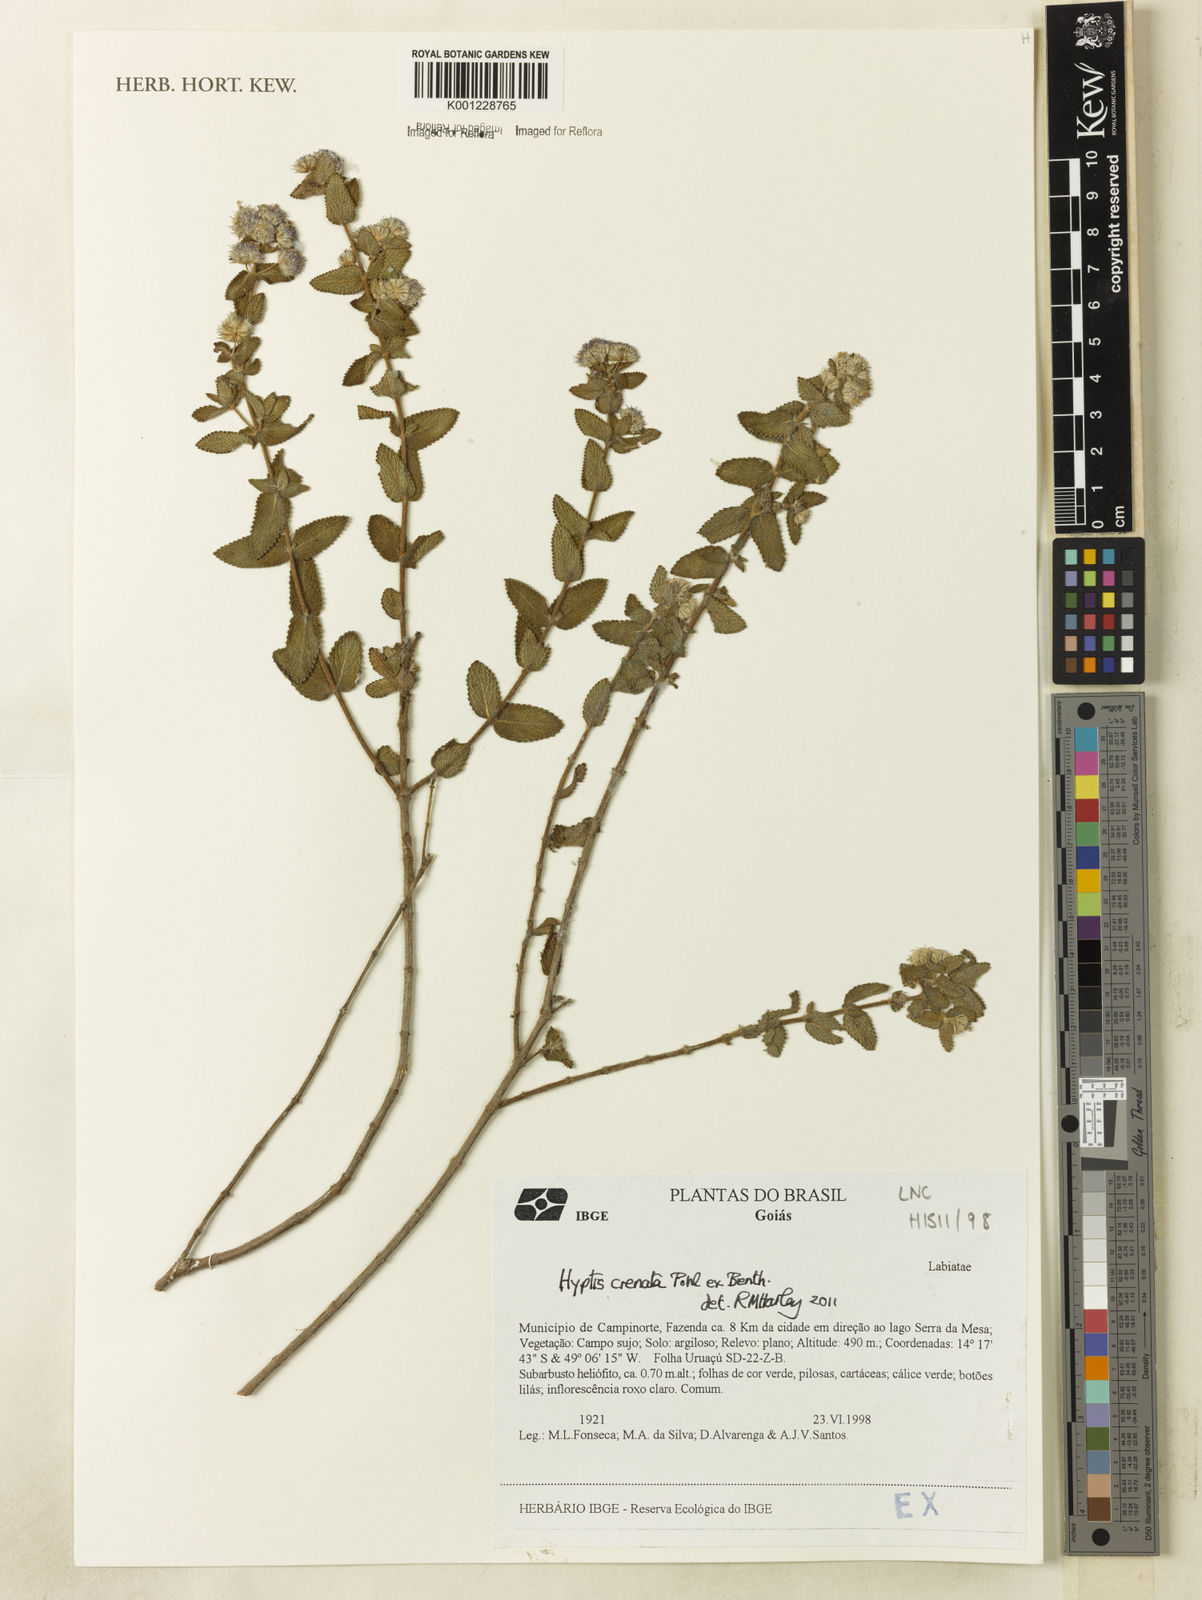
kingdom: Plantae
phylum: Tracheophyta
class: Magnoliopsida
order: Lamiales
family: Lamiaceae
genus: Hyptis
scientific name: Hyptis crenata
